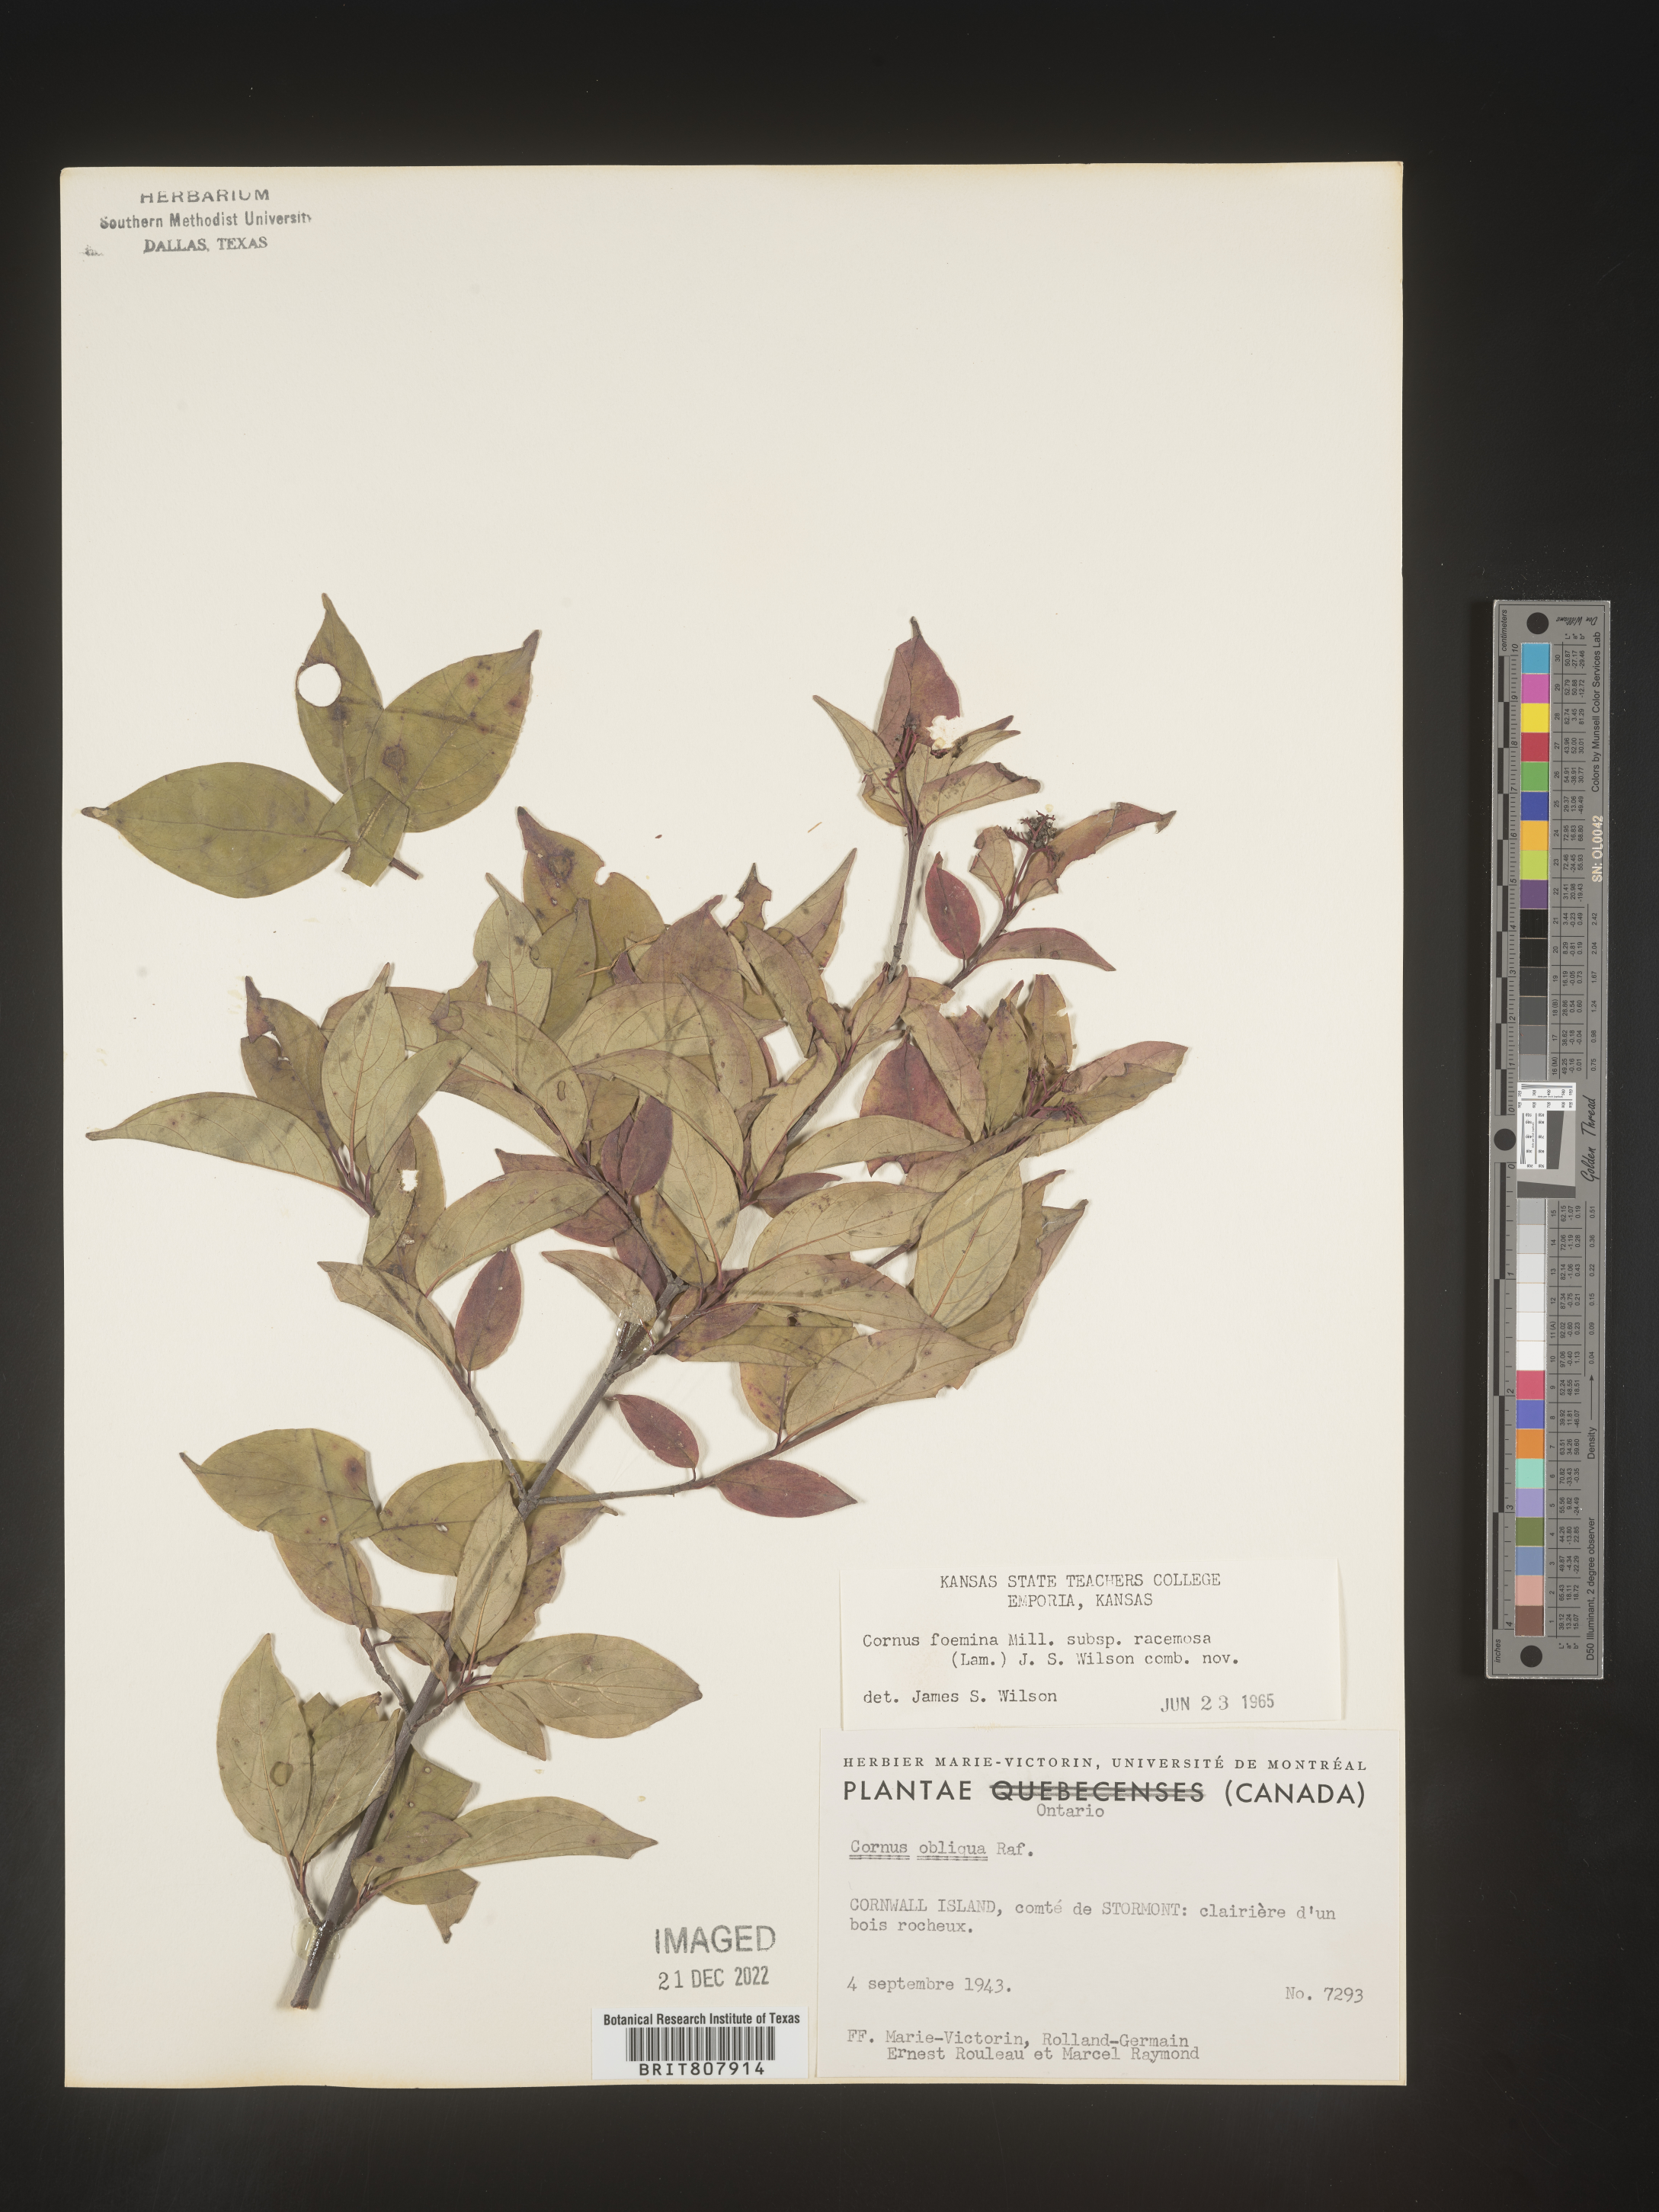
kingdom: Plantae
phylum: Tracheophyta
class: Magnoliopsida
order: Cornales
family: Cornaceae
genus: Cornus
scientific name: Cornus racemosa
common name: Panicled dogwood
